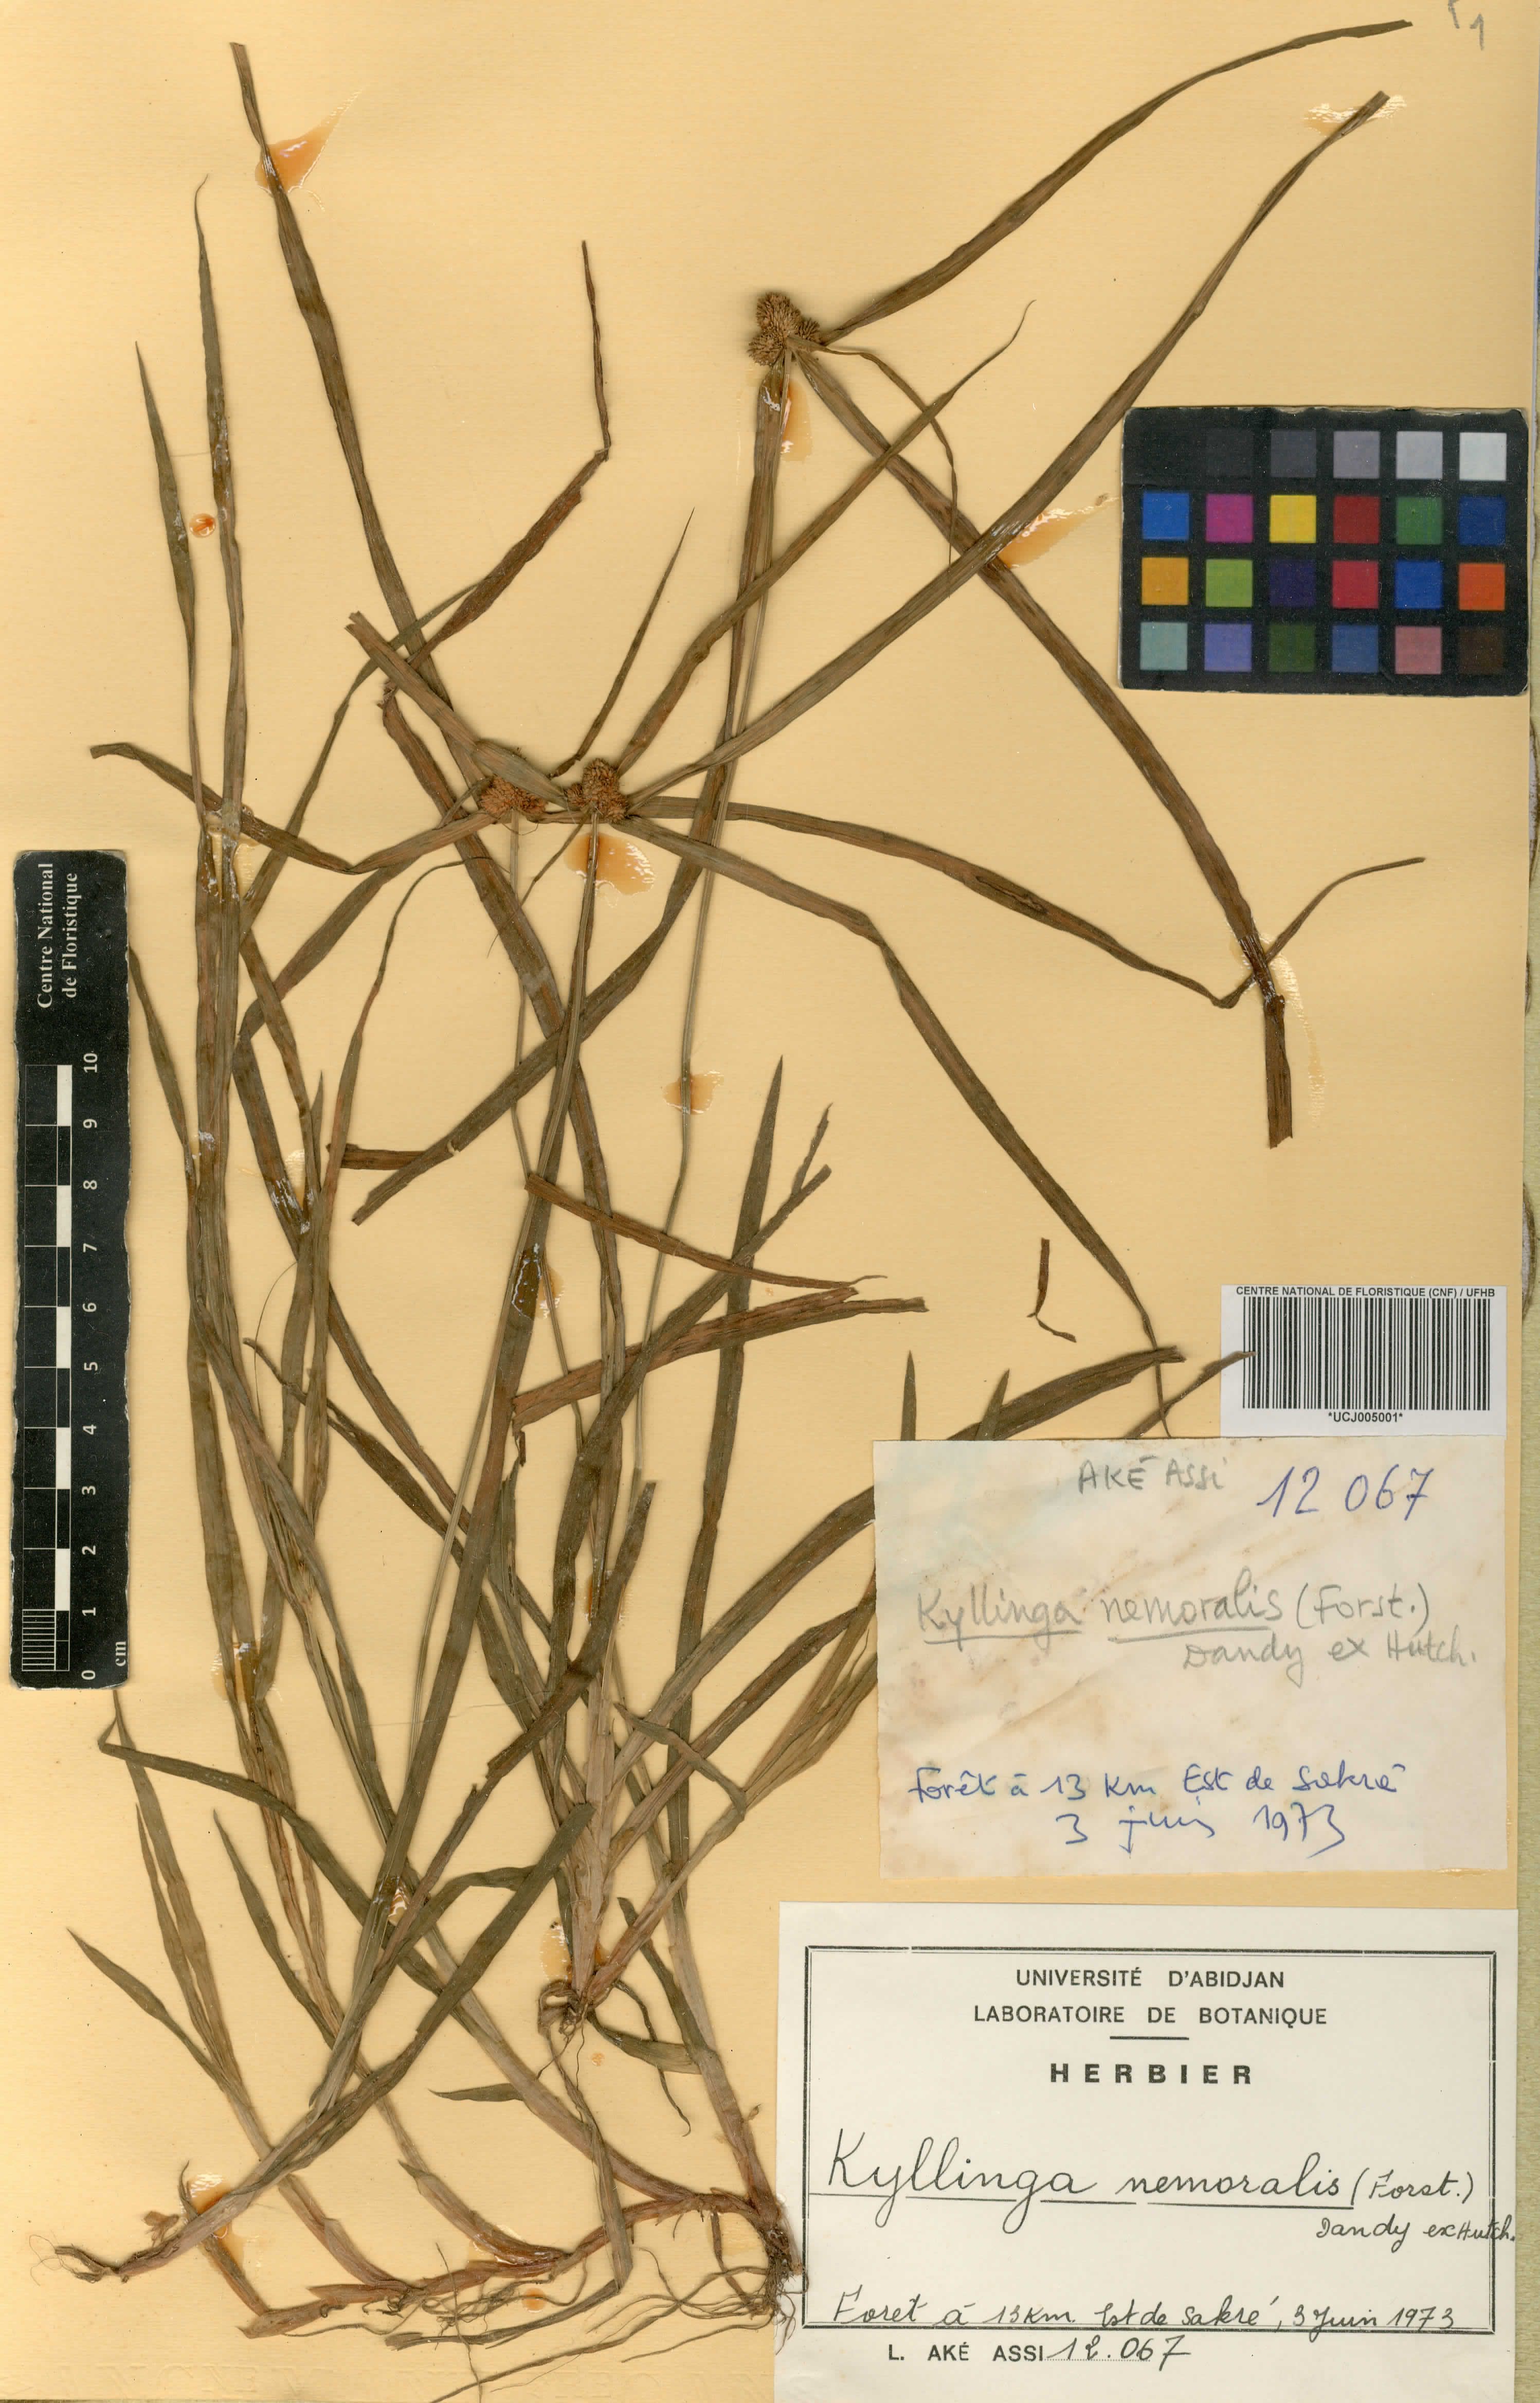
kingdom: Plantae
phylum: Tracheophyta
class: Liliopsida
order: Poales
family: Cyperaceae
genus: Cyperus
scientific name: Cyperus mindorensis
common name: Flatsedge
